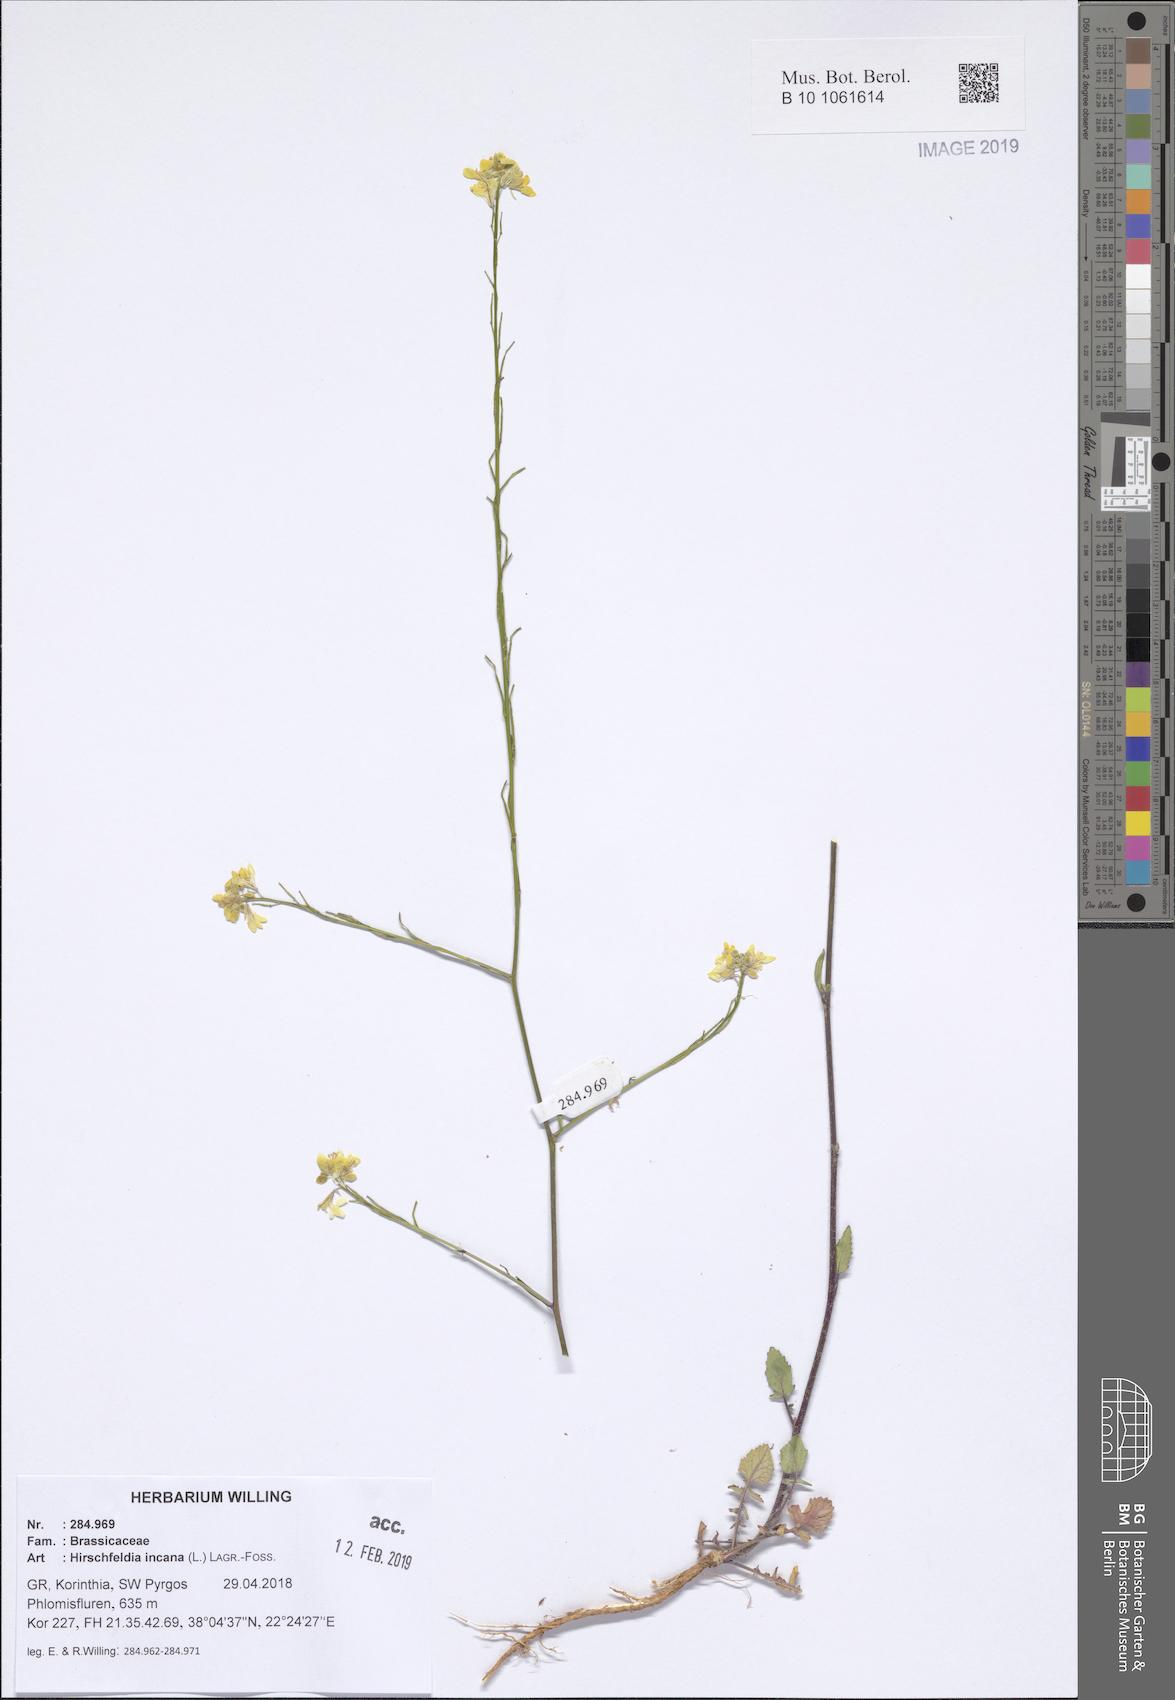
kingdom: Plantae
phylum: Tracheophyta
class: Magnoliopsida
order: Brassicales
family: Brassicaceae
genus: Hirschfeldia
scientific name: Hirschfeldia incana
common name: Hoary mustard
